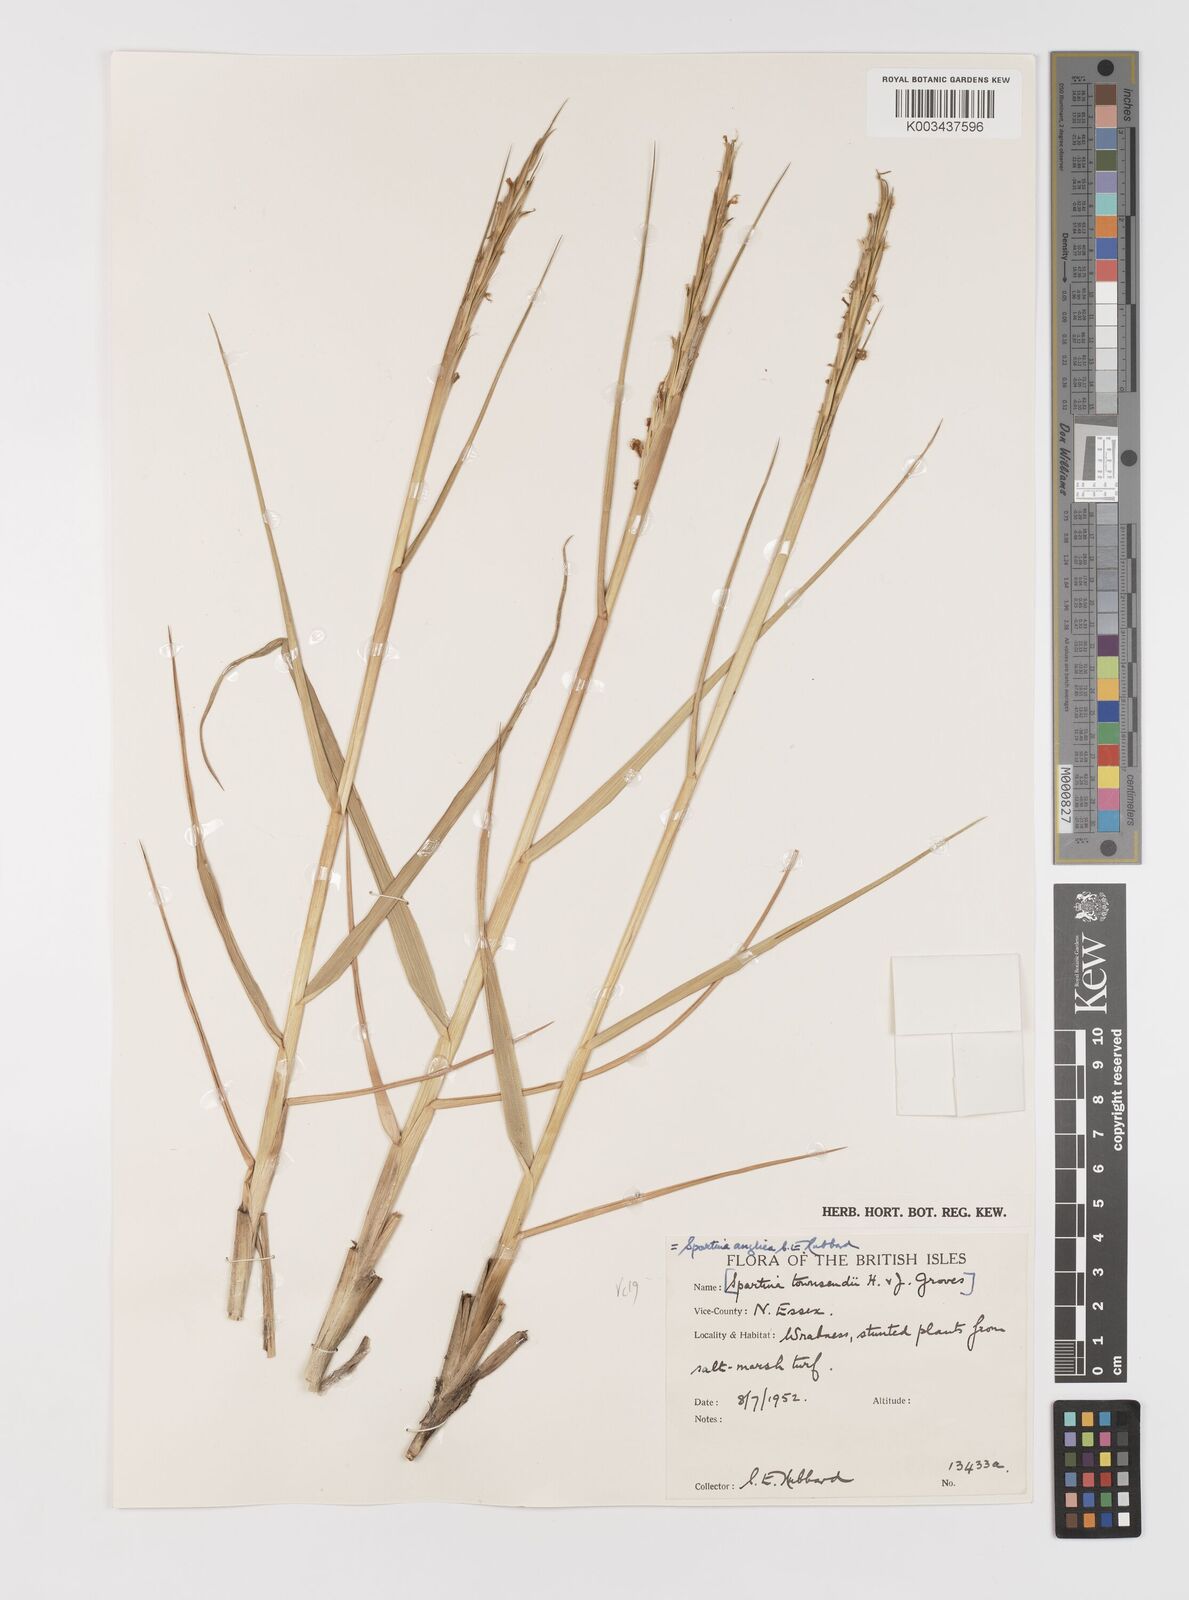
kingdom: Plantae
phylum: Tracheophyta
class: Liliopsida
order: Poales
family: Poaceae
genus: Sporobolus
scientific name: Sporobolus anglicus
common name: English cordgrass
